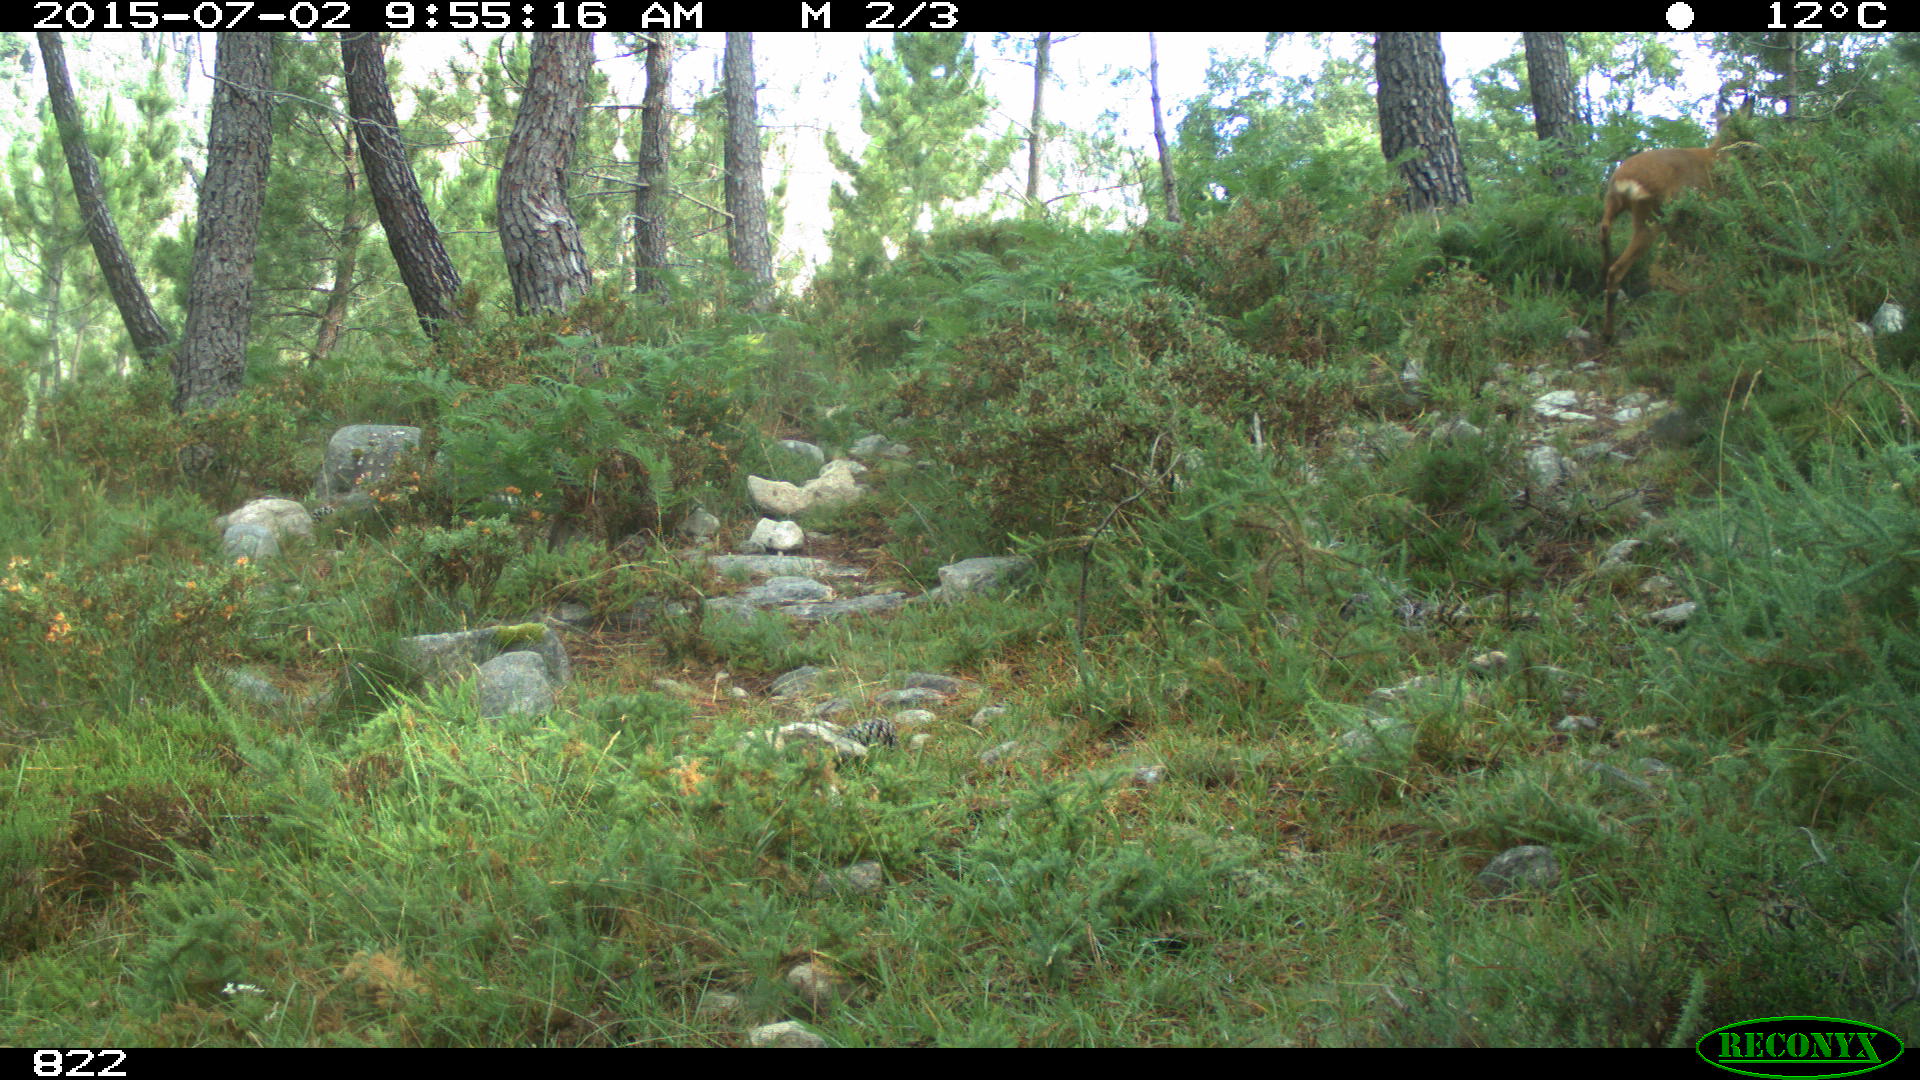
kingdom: Animalia
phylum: Chordata
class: Mammalia
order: Artiodactyla
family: Cervidae
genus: Capreolus
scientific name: Capreolus capreolus
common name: Western roe deer
